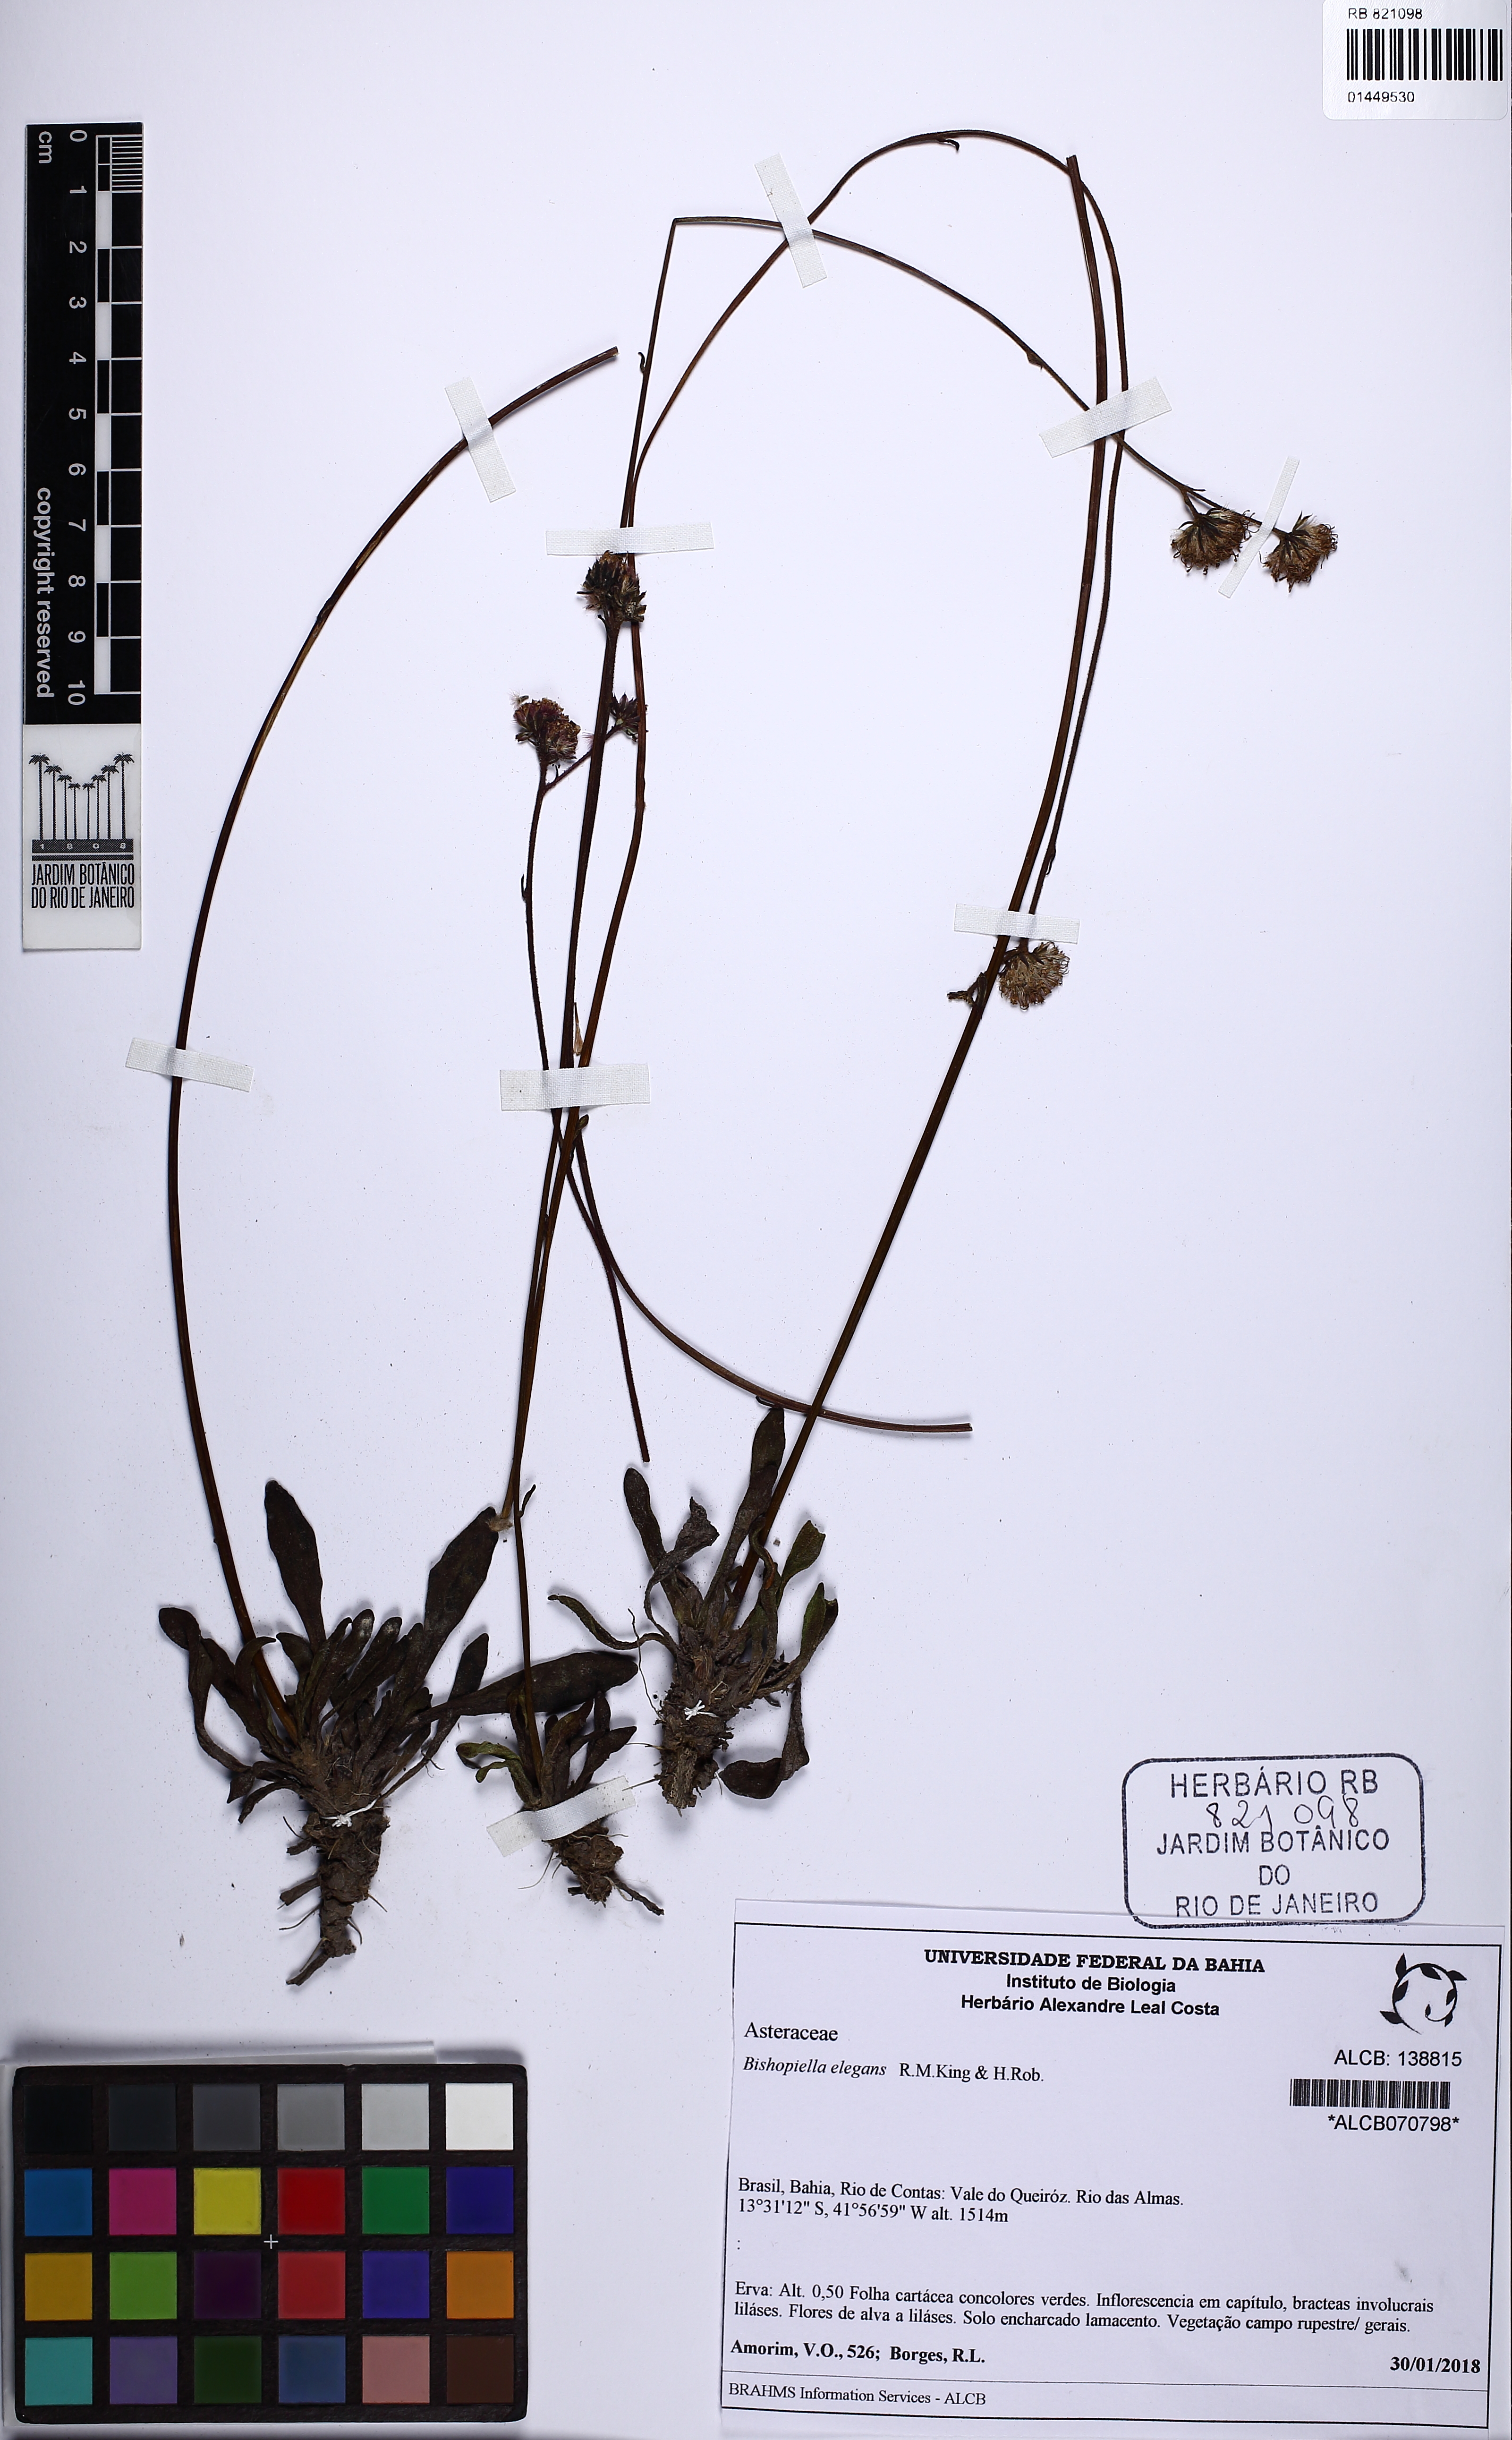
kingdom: Plantae
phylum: Tracheophyta
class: Magnoliopsida
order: Asterales
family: Asteraceae
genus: Bishopiella
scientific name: Bishopiella elegans
